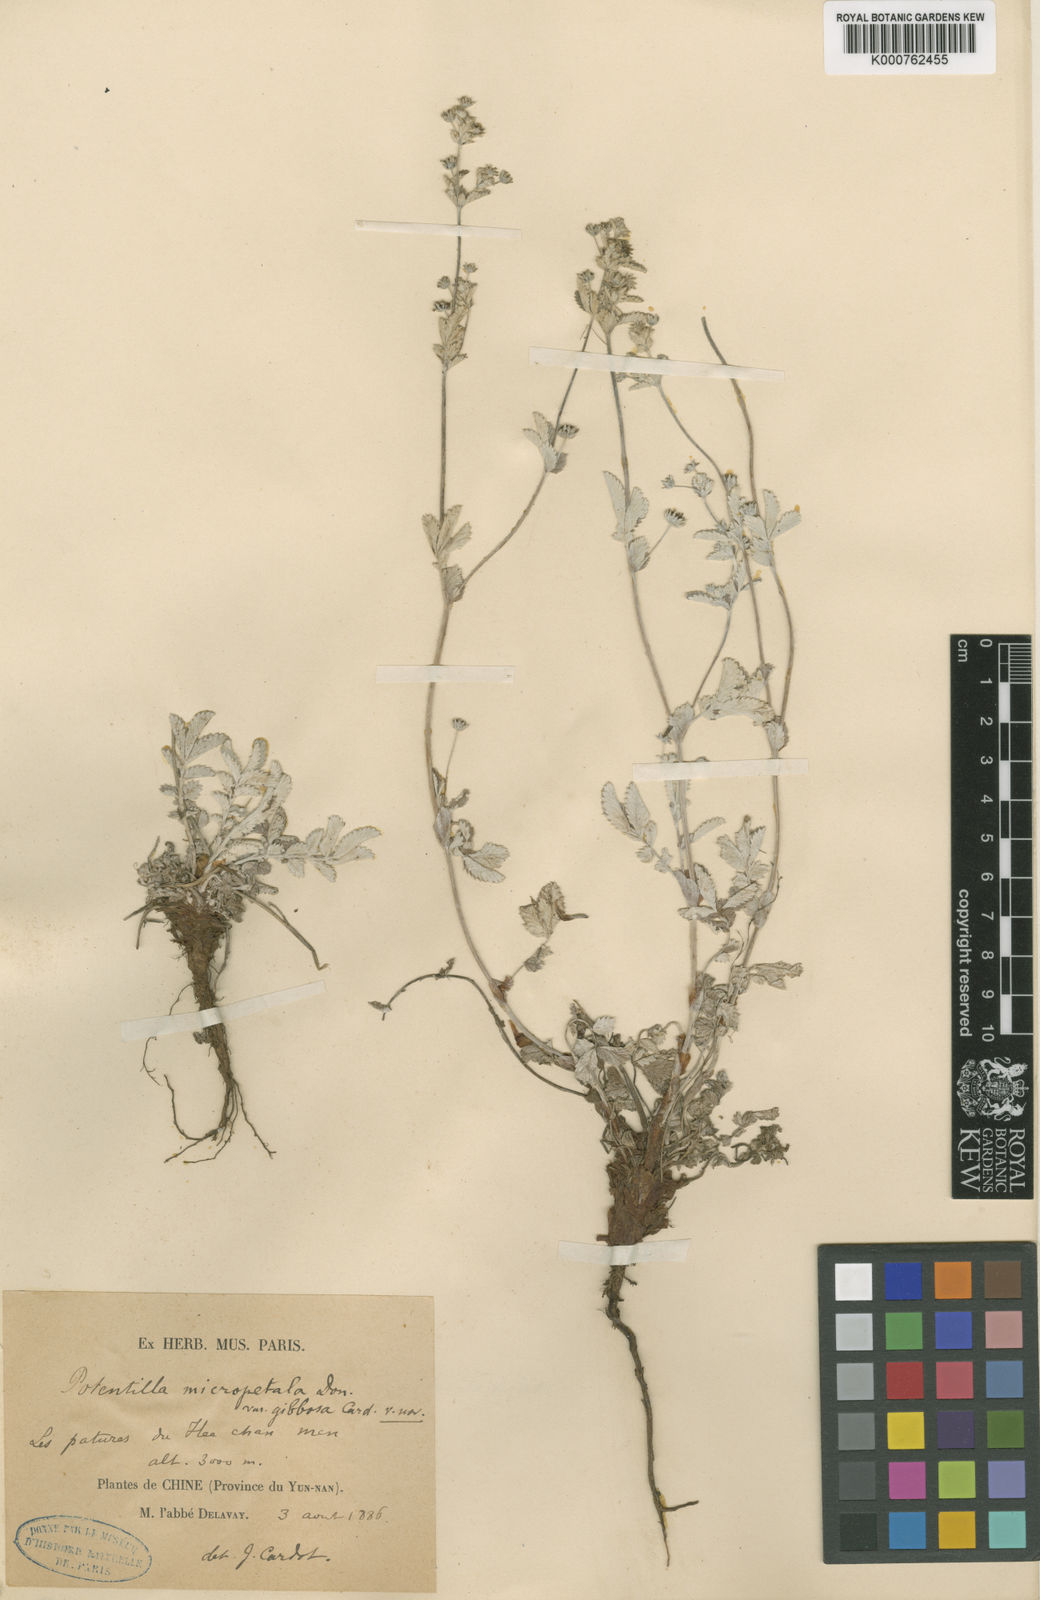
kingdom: Plantae
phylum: Tracheophyta
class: Magnoliopsida
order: Rosales
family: Rosaceae
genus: Argentina
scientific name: Argentina micropetala
